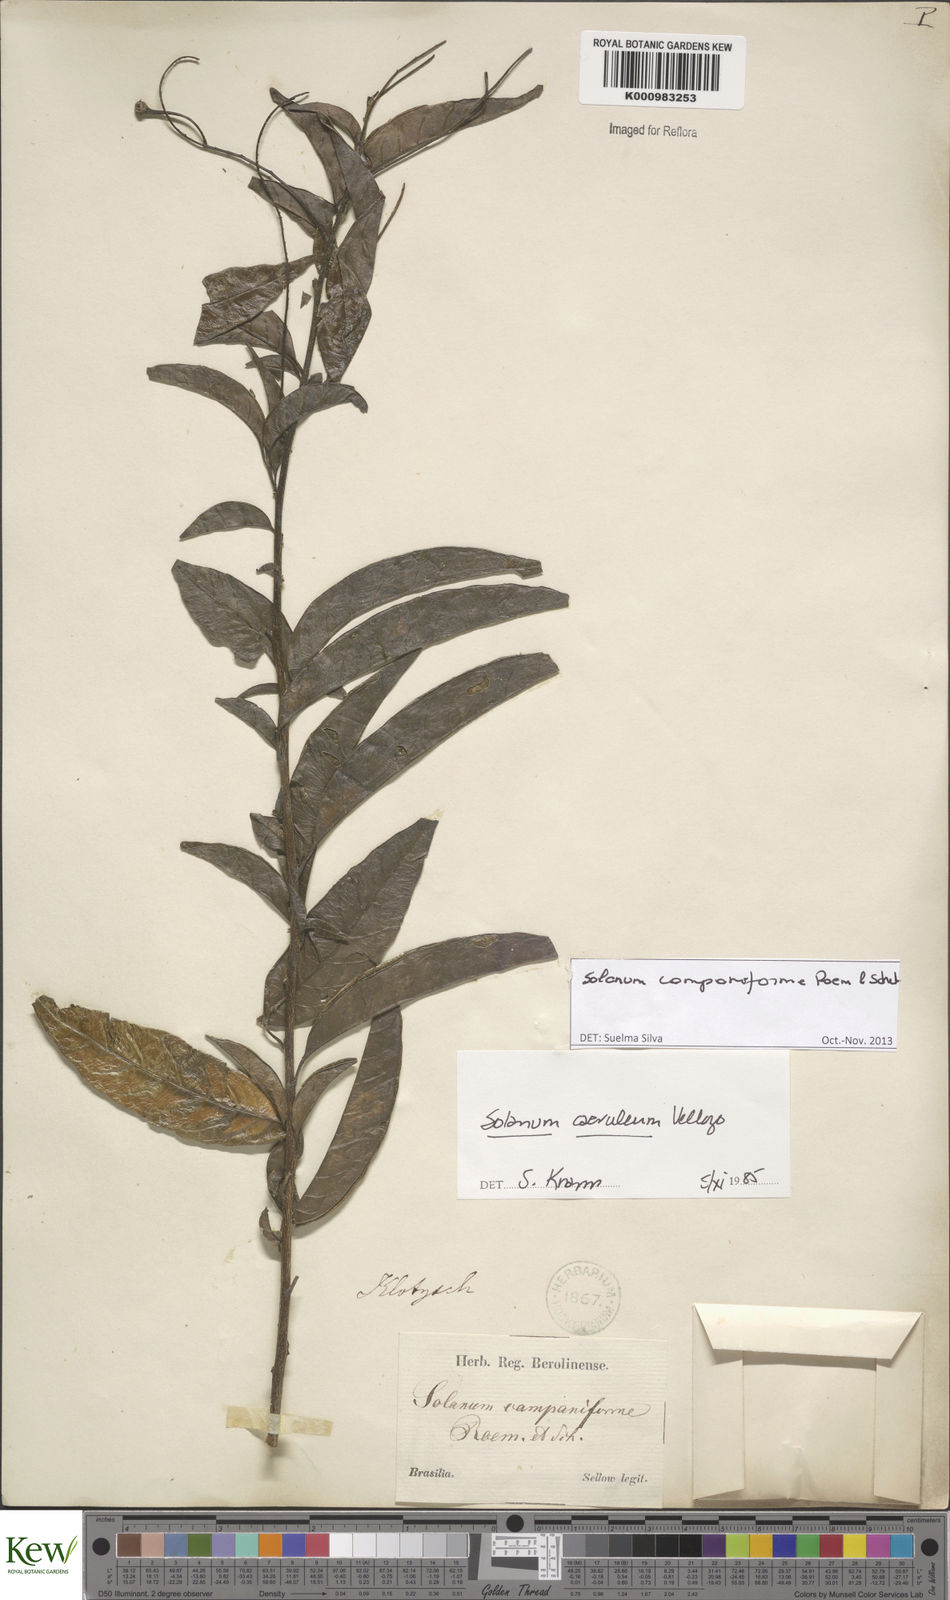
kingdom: Plantae
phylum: Tracheophyta
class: Magnoliopsida
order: Solanales
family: Solanaceae
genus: Solanum
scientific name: Solanum campaniforme
